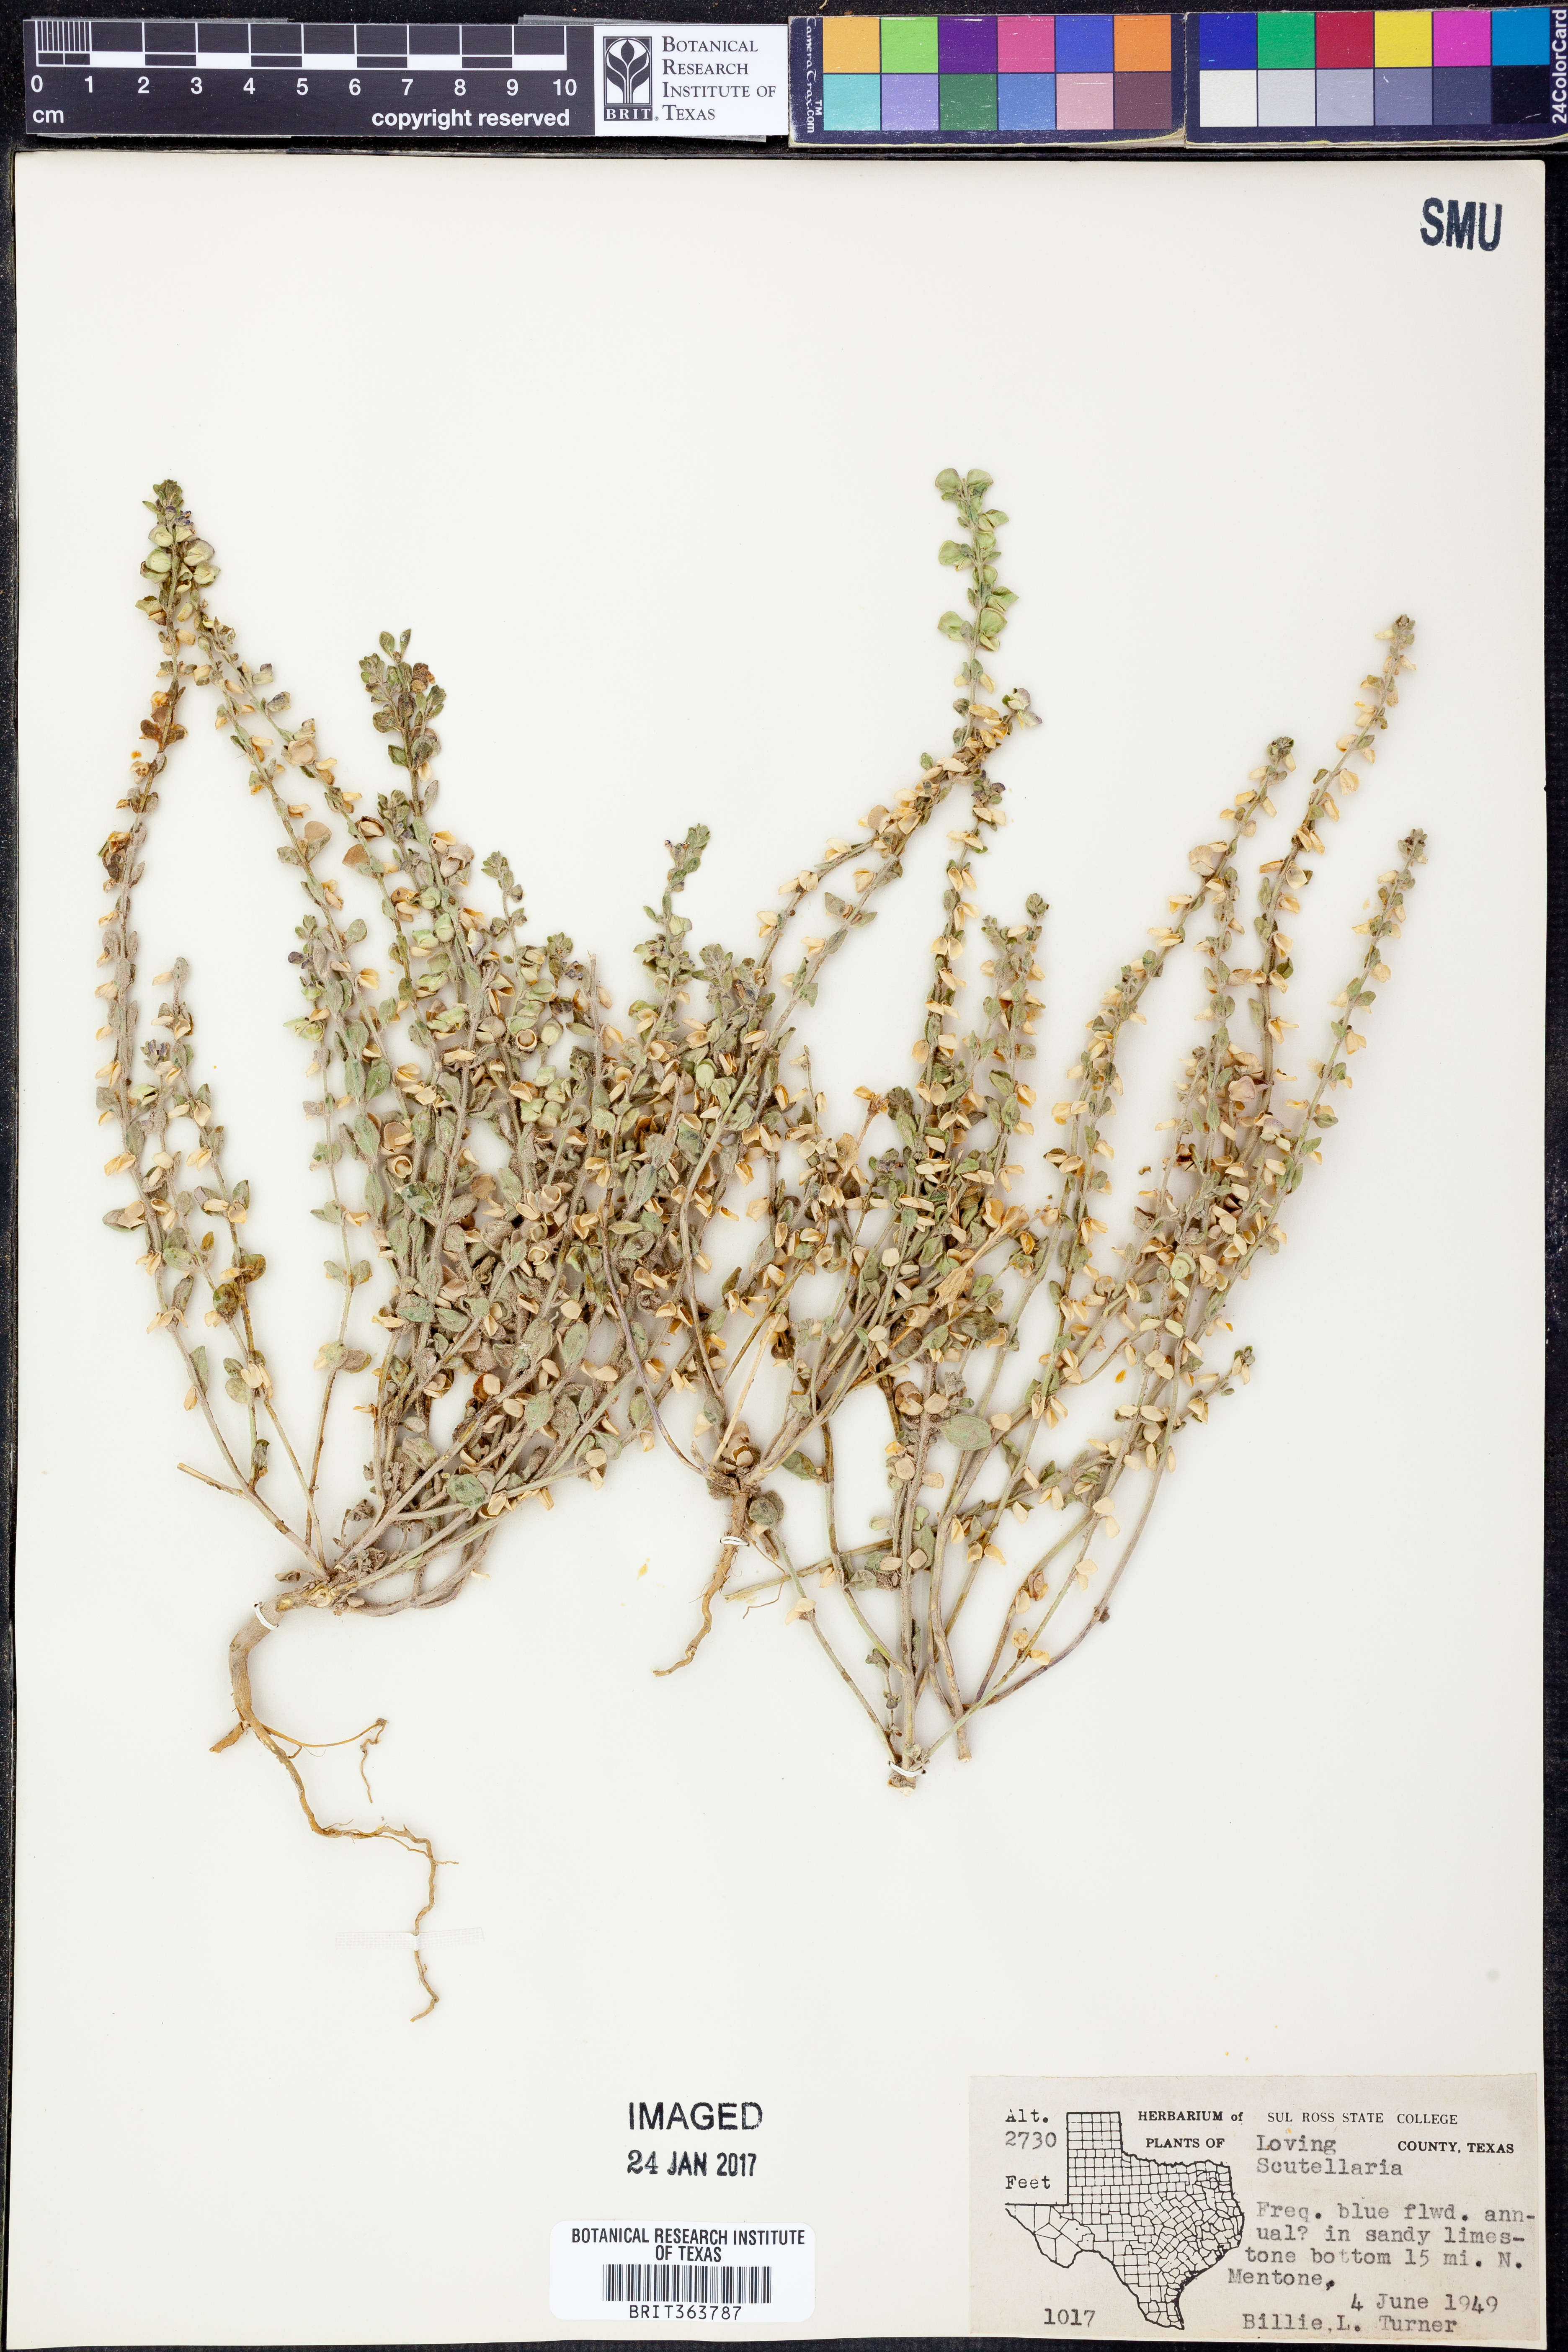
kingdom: Plantae
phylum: Tracheophyta
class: Magnoliopsida
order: Lamiales
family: Lamiaceae
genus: Scutellaria
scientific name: Scutellaria
